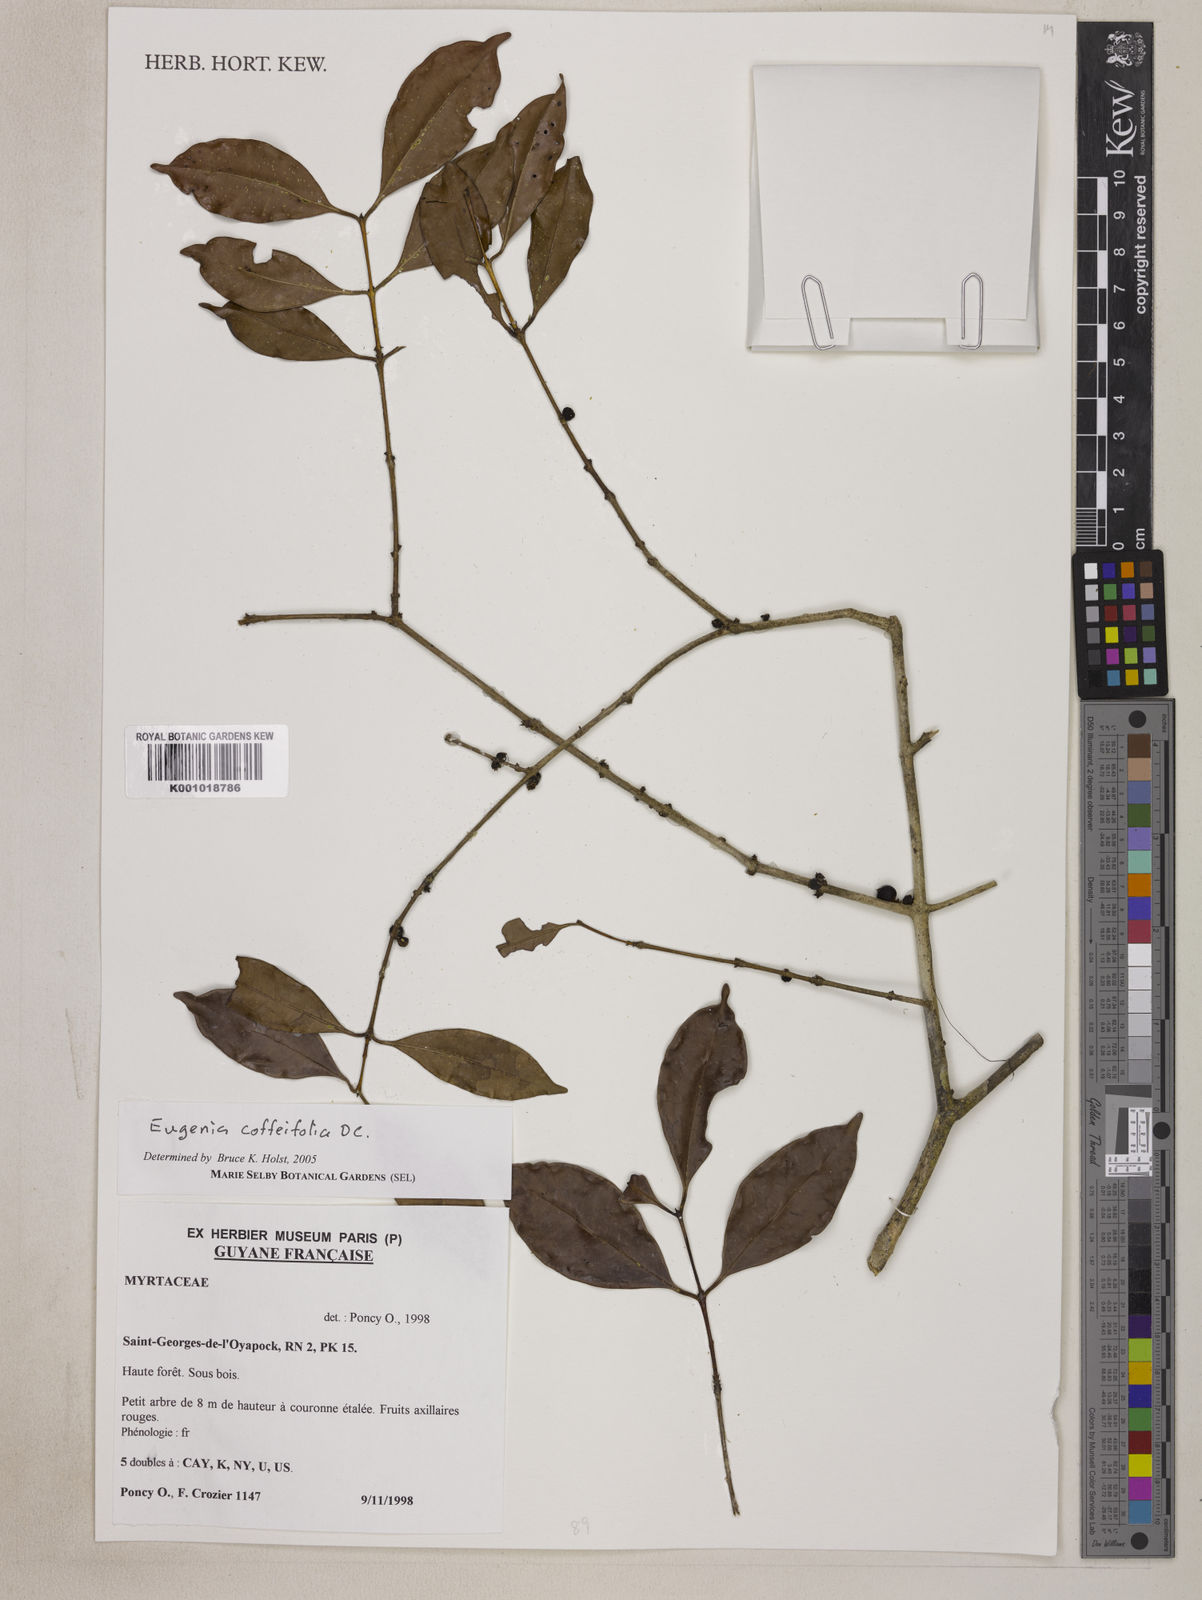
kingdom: Plantae
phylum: Tracheophyta
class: Magnoliopsida
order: Myrtales
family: Myrtaceae
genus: Eugenia
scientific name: Eugenia coffeifolia
